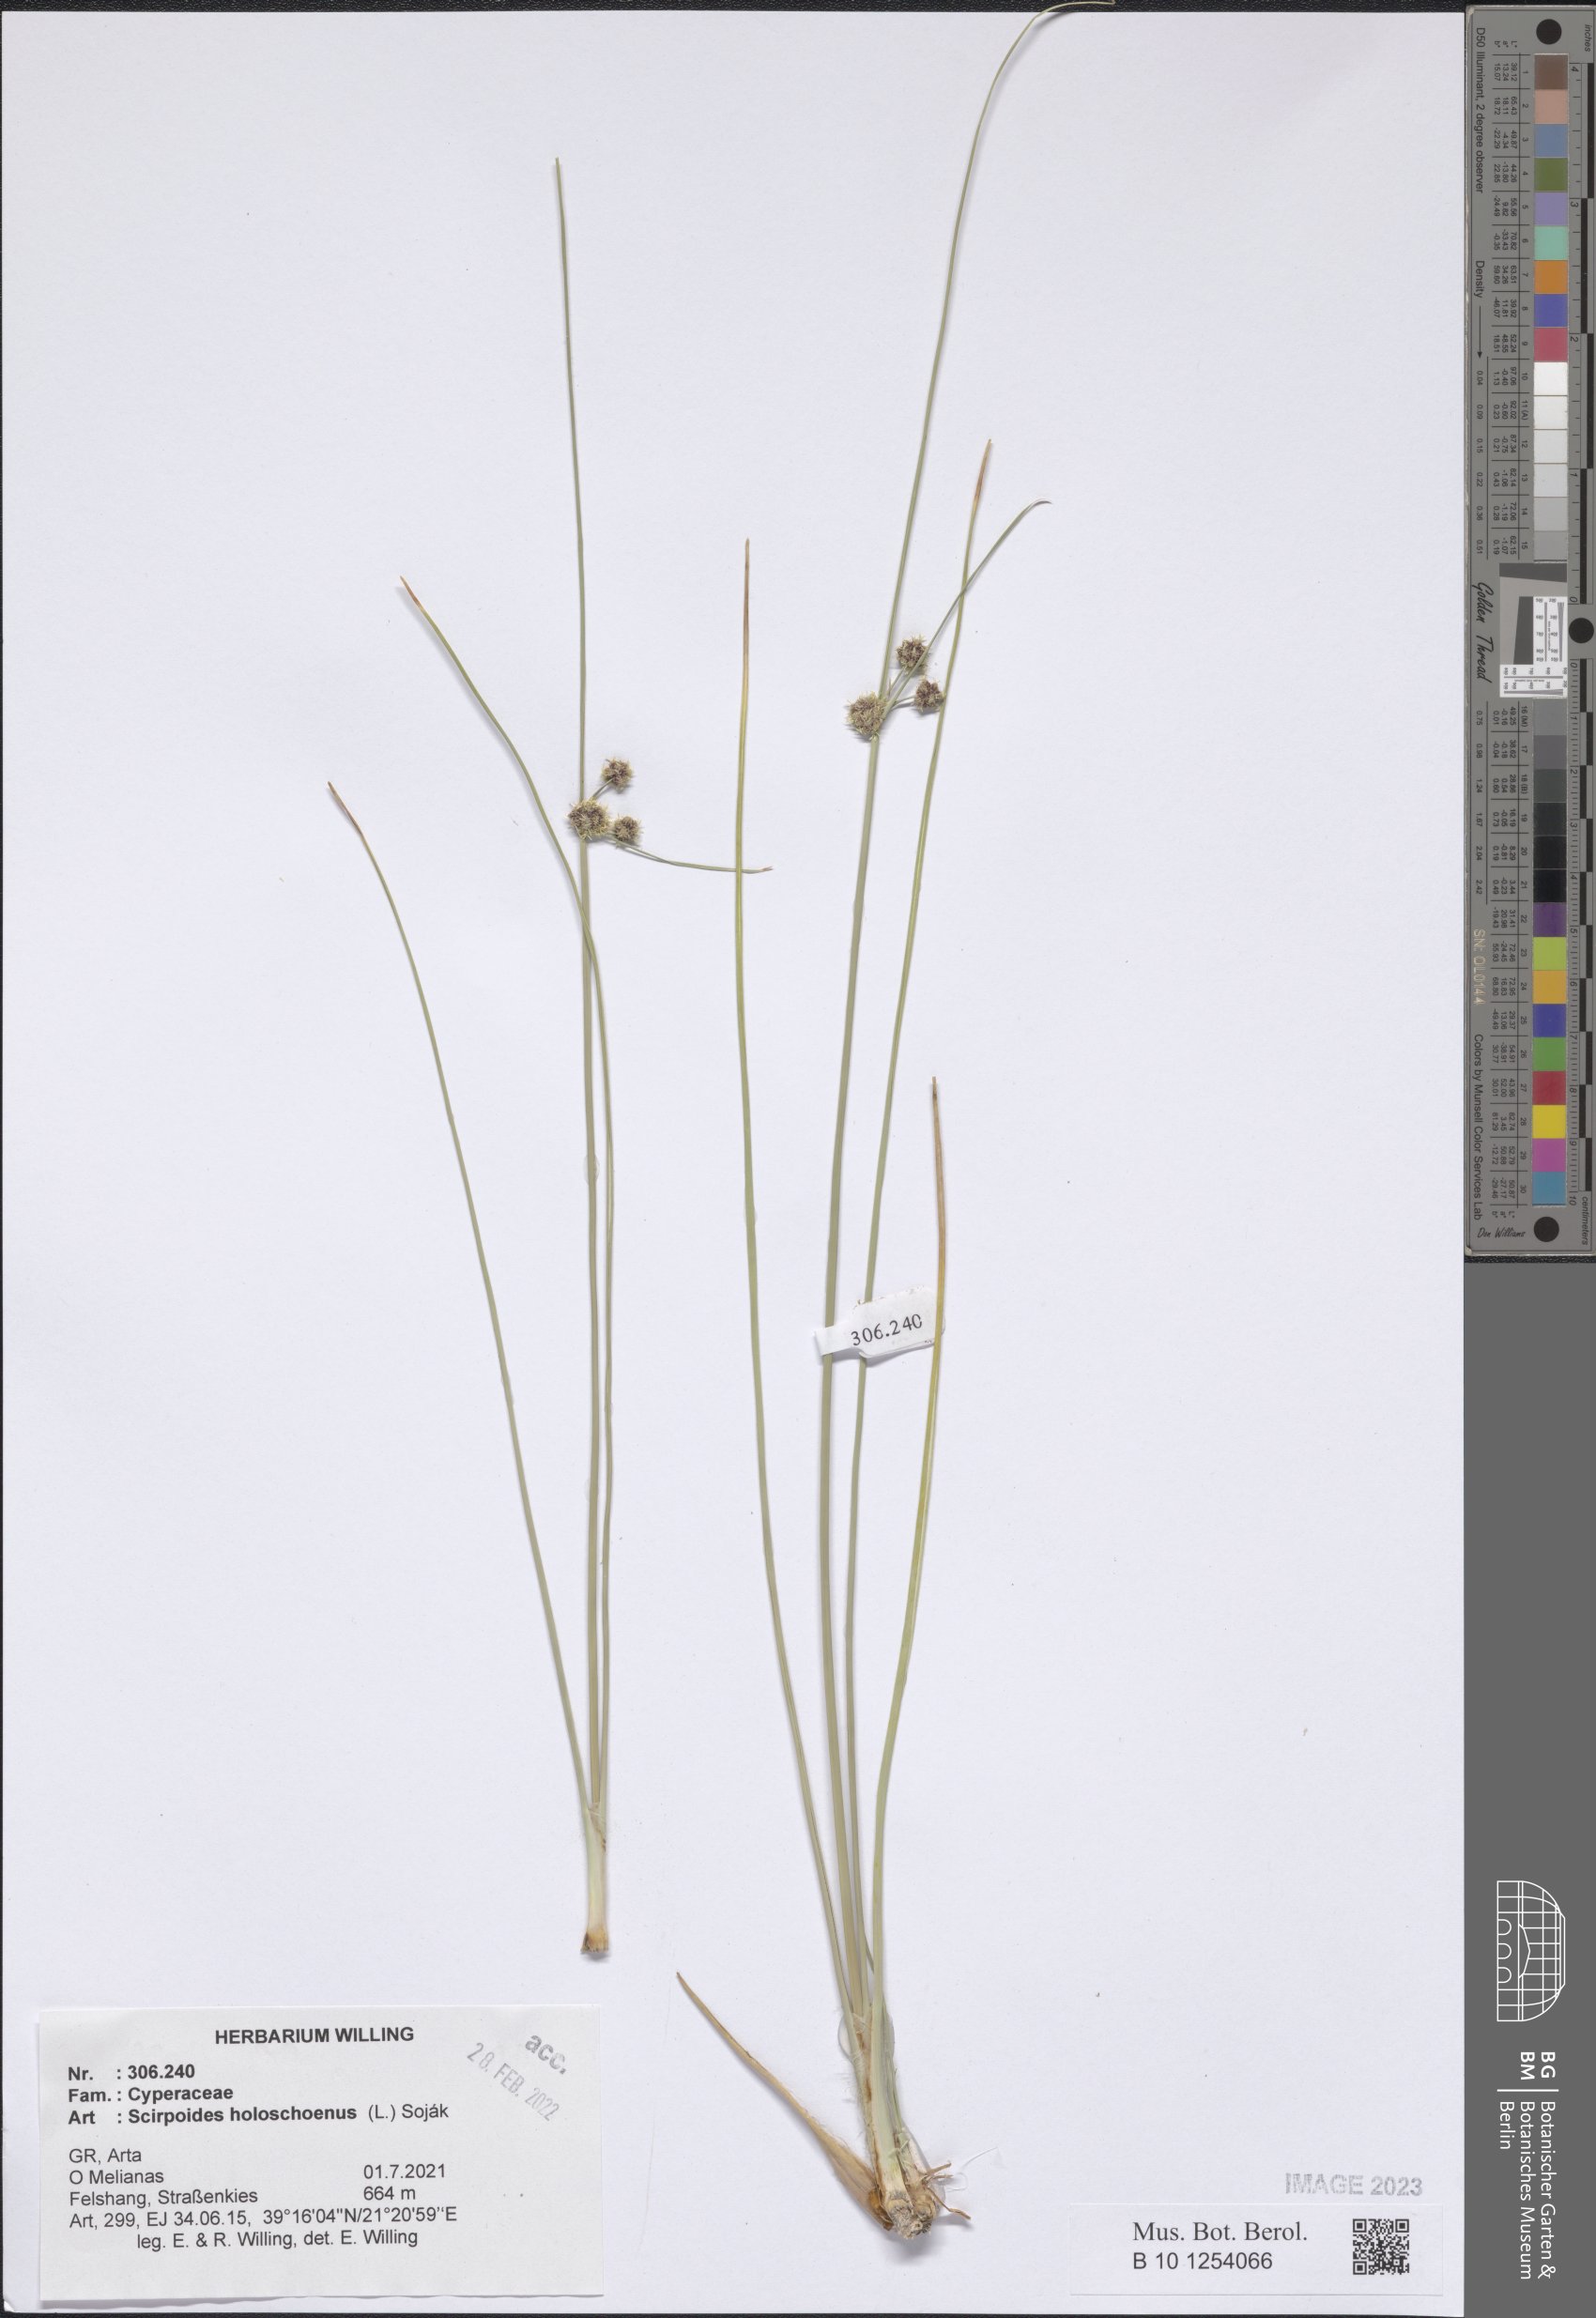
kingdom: Plantae
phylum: Tracheophyta
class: Liliopsida
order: Poales
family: Cyperaceae
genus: Scirpoides
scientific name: Scirpoides
